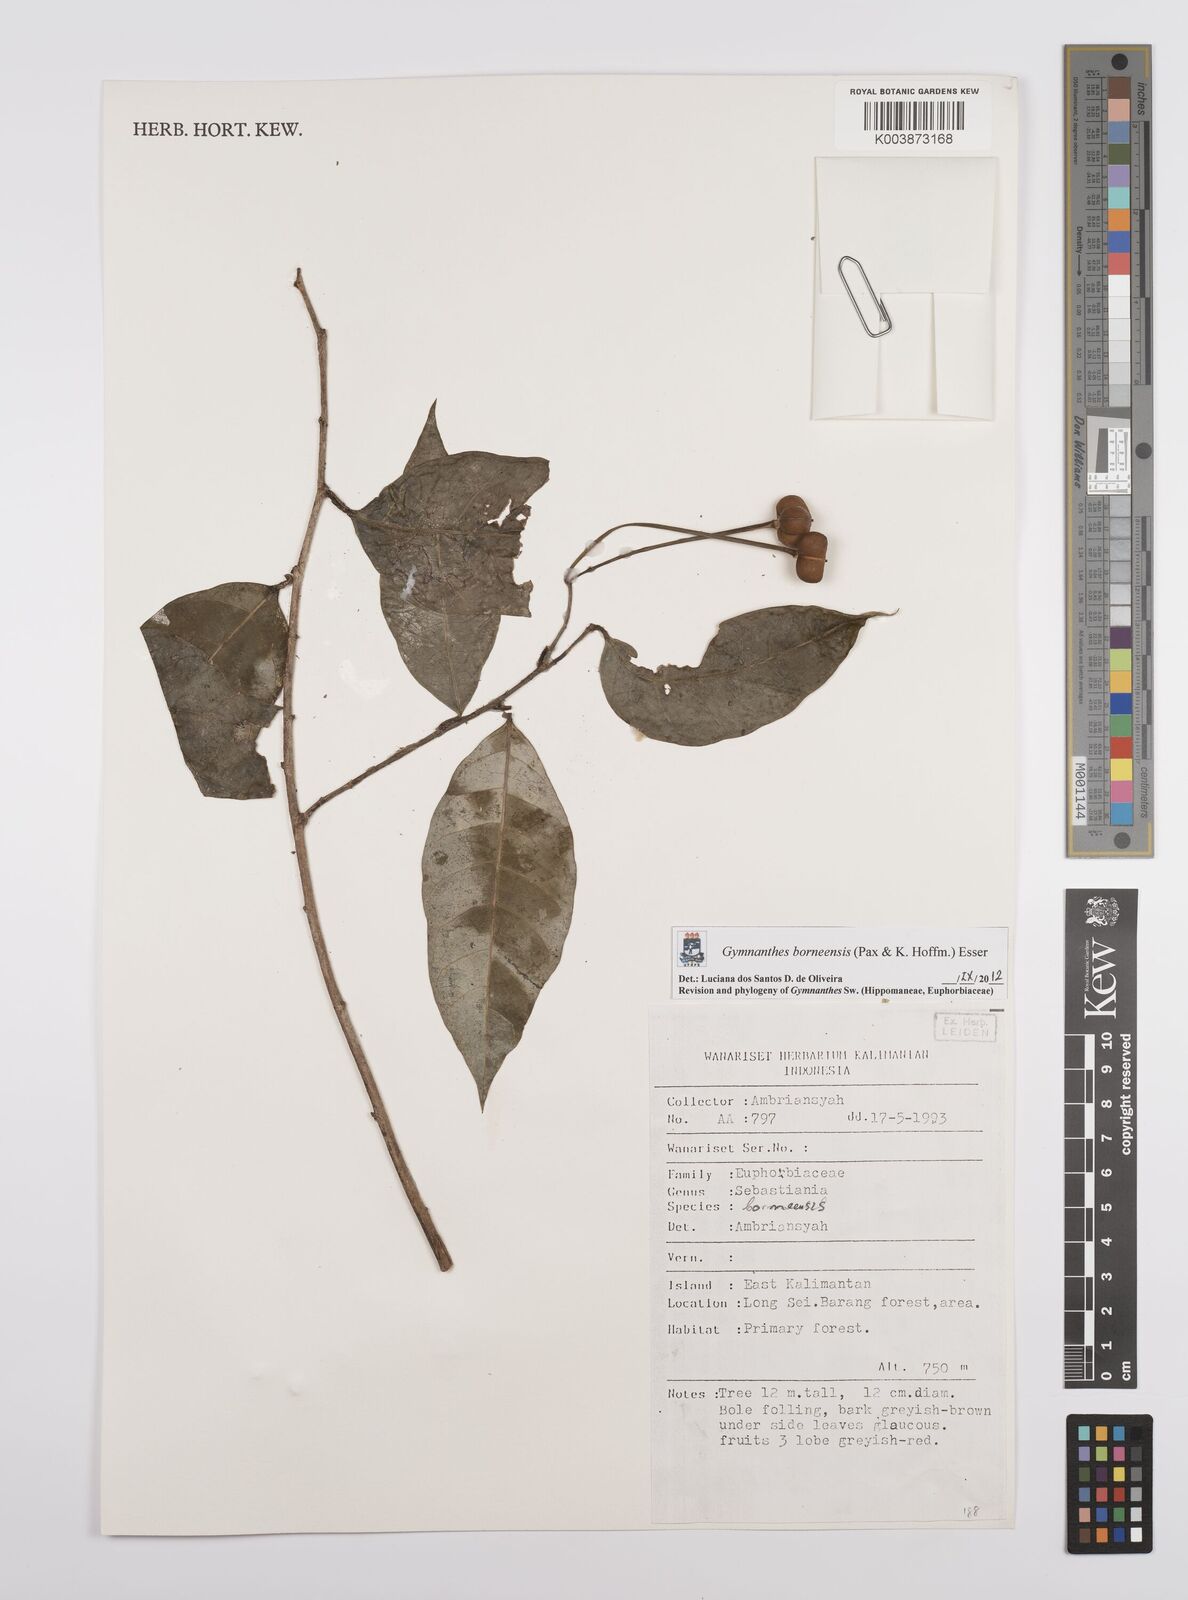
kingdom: Plantae
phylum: Tracheophyta
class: Magnoliopsida
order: Malpighiales
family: Euphorbiaceae
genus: Gymnanthes
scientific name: Gymnanthes borneensis
